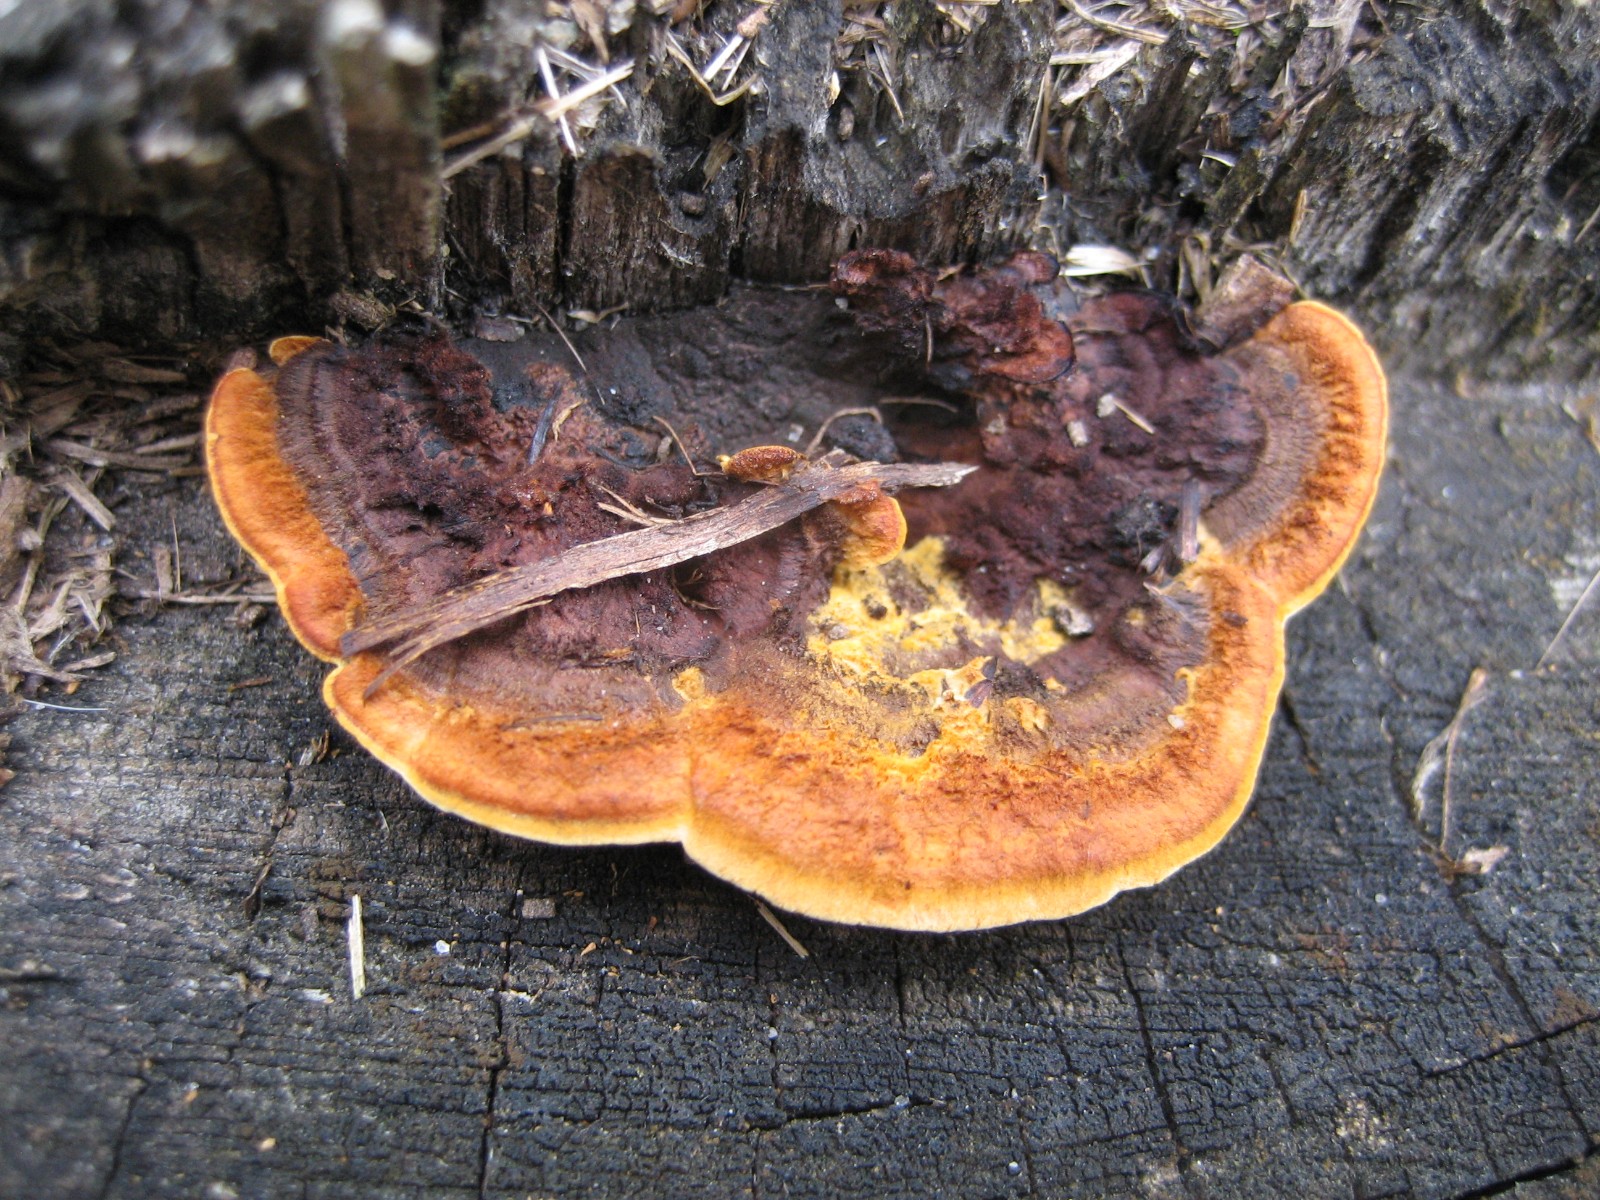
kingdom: Fungi
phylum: Basidiomycota
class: Agaricomycetes
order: Gloeophyllales
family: Gloeophyllaceae
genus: Gloeophyllum
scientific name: Gloeophyllum sepiarium
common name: fyrre-korkhat
